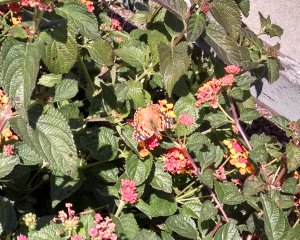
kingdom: Animalia
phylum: Arthropoda
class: Insecta
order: Lepidoptera
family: Nymphalidae
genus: Vanessa
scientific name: Vanessa cardui
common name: Painted Lady
